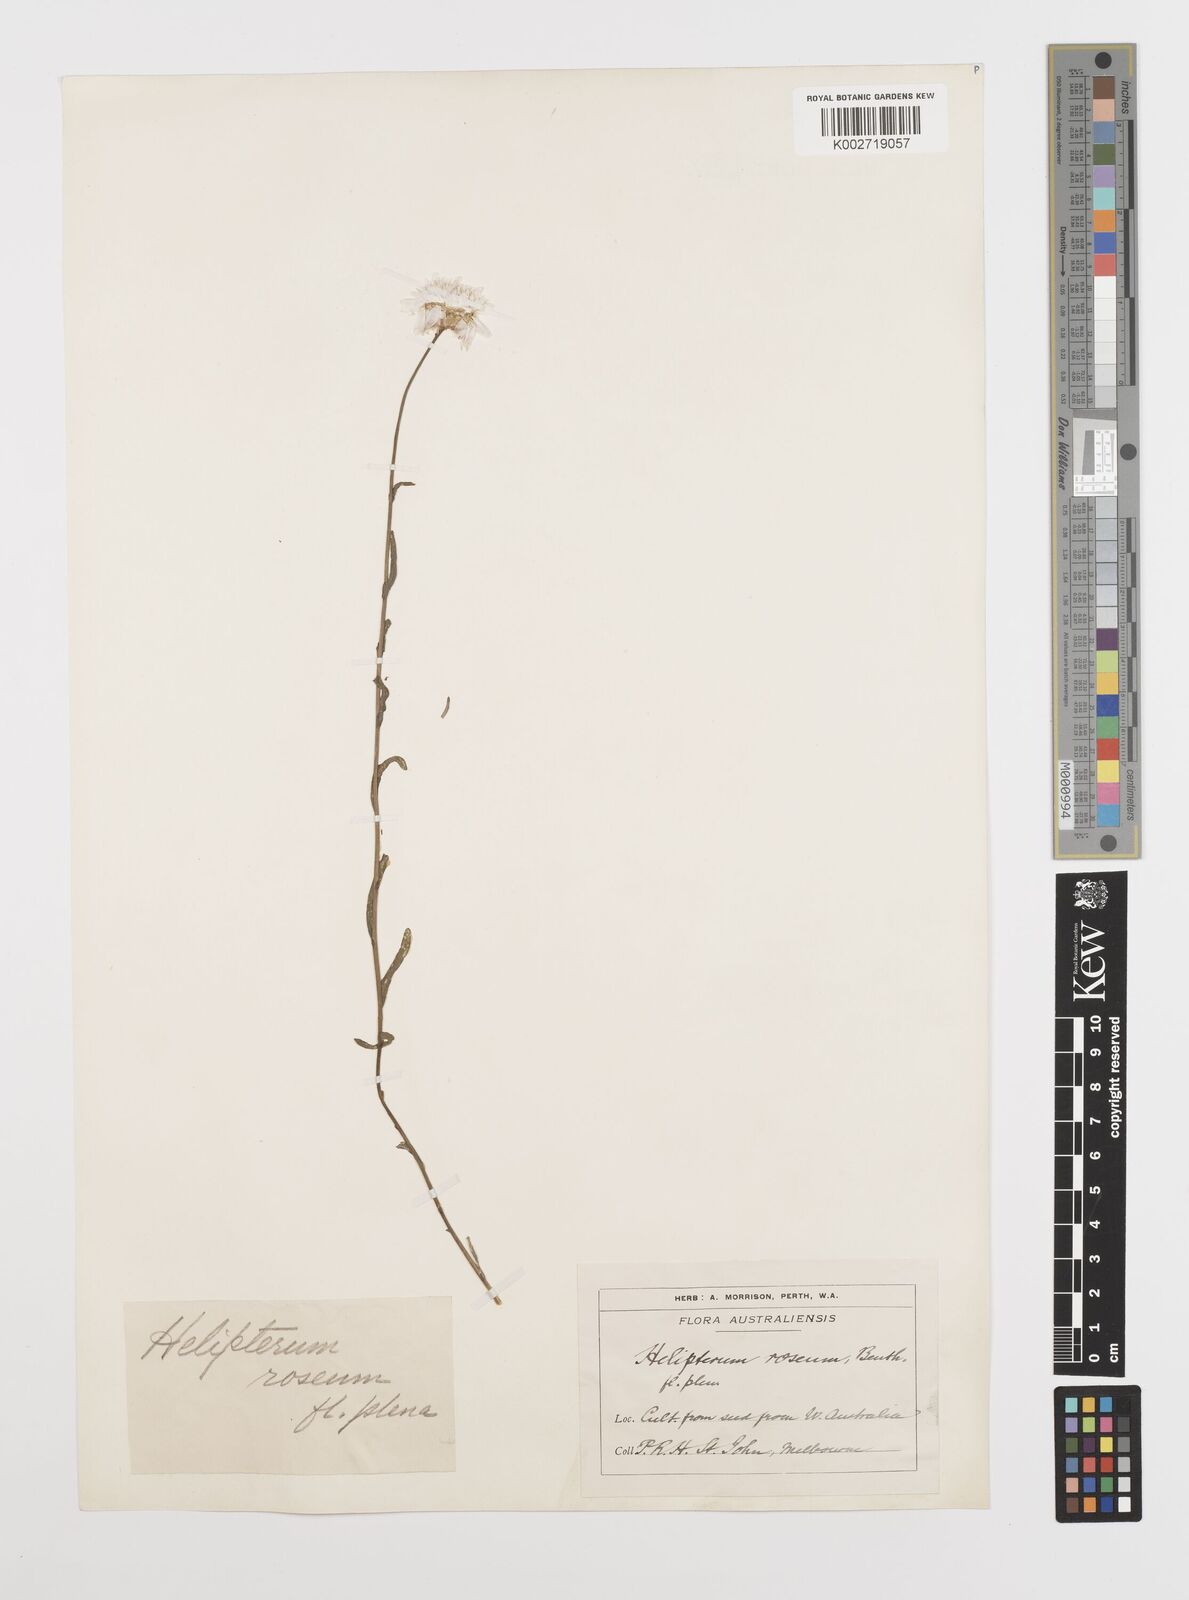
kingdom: Plantae
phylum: Tracheophyta
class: Magnoliopsida
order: Asterales
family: Asteraceae
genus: Rhodanthe
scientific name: Rhodanthe chlorocephala
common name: Rosy sunray
